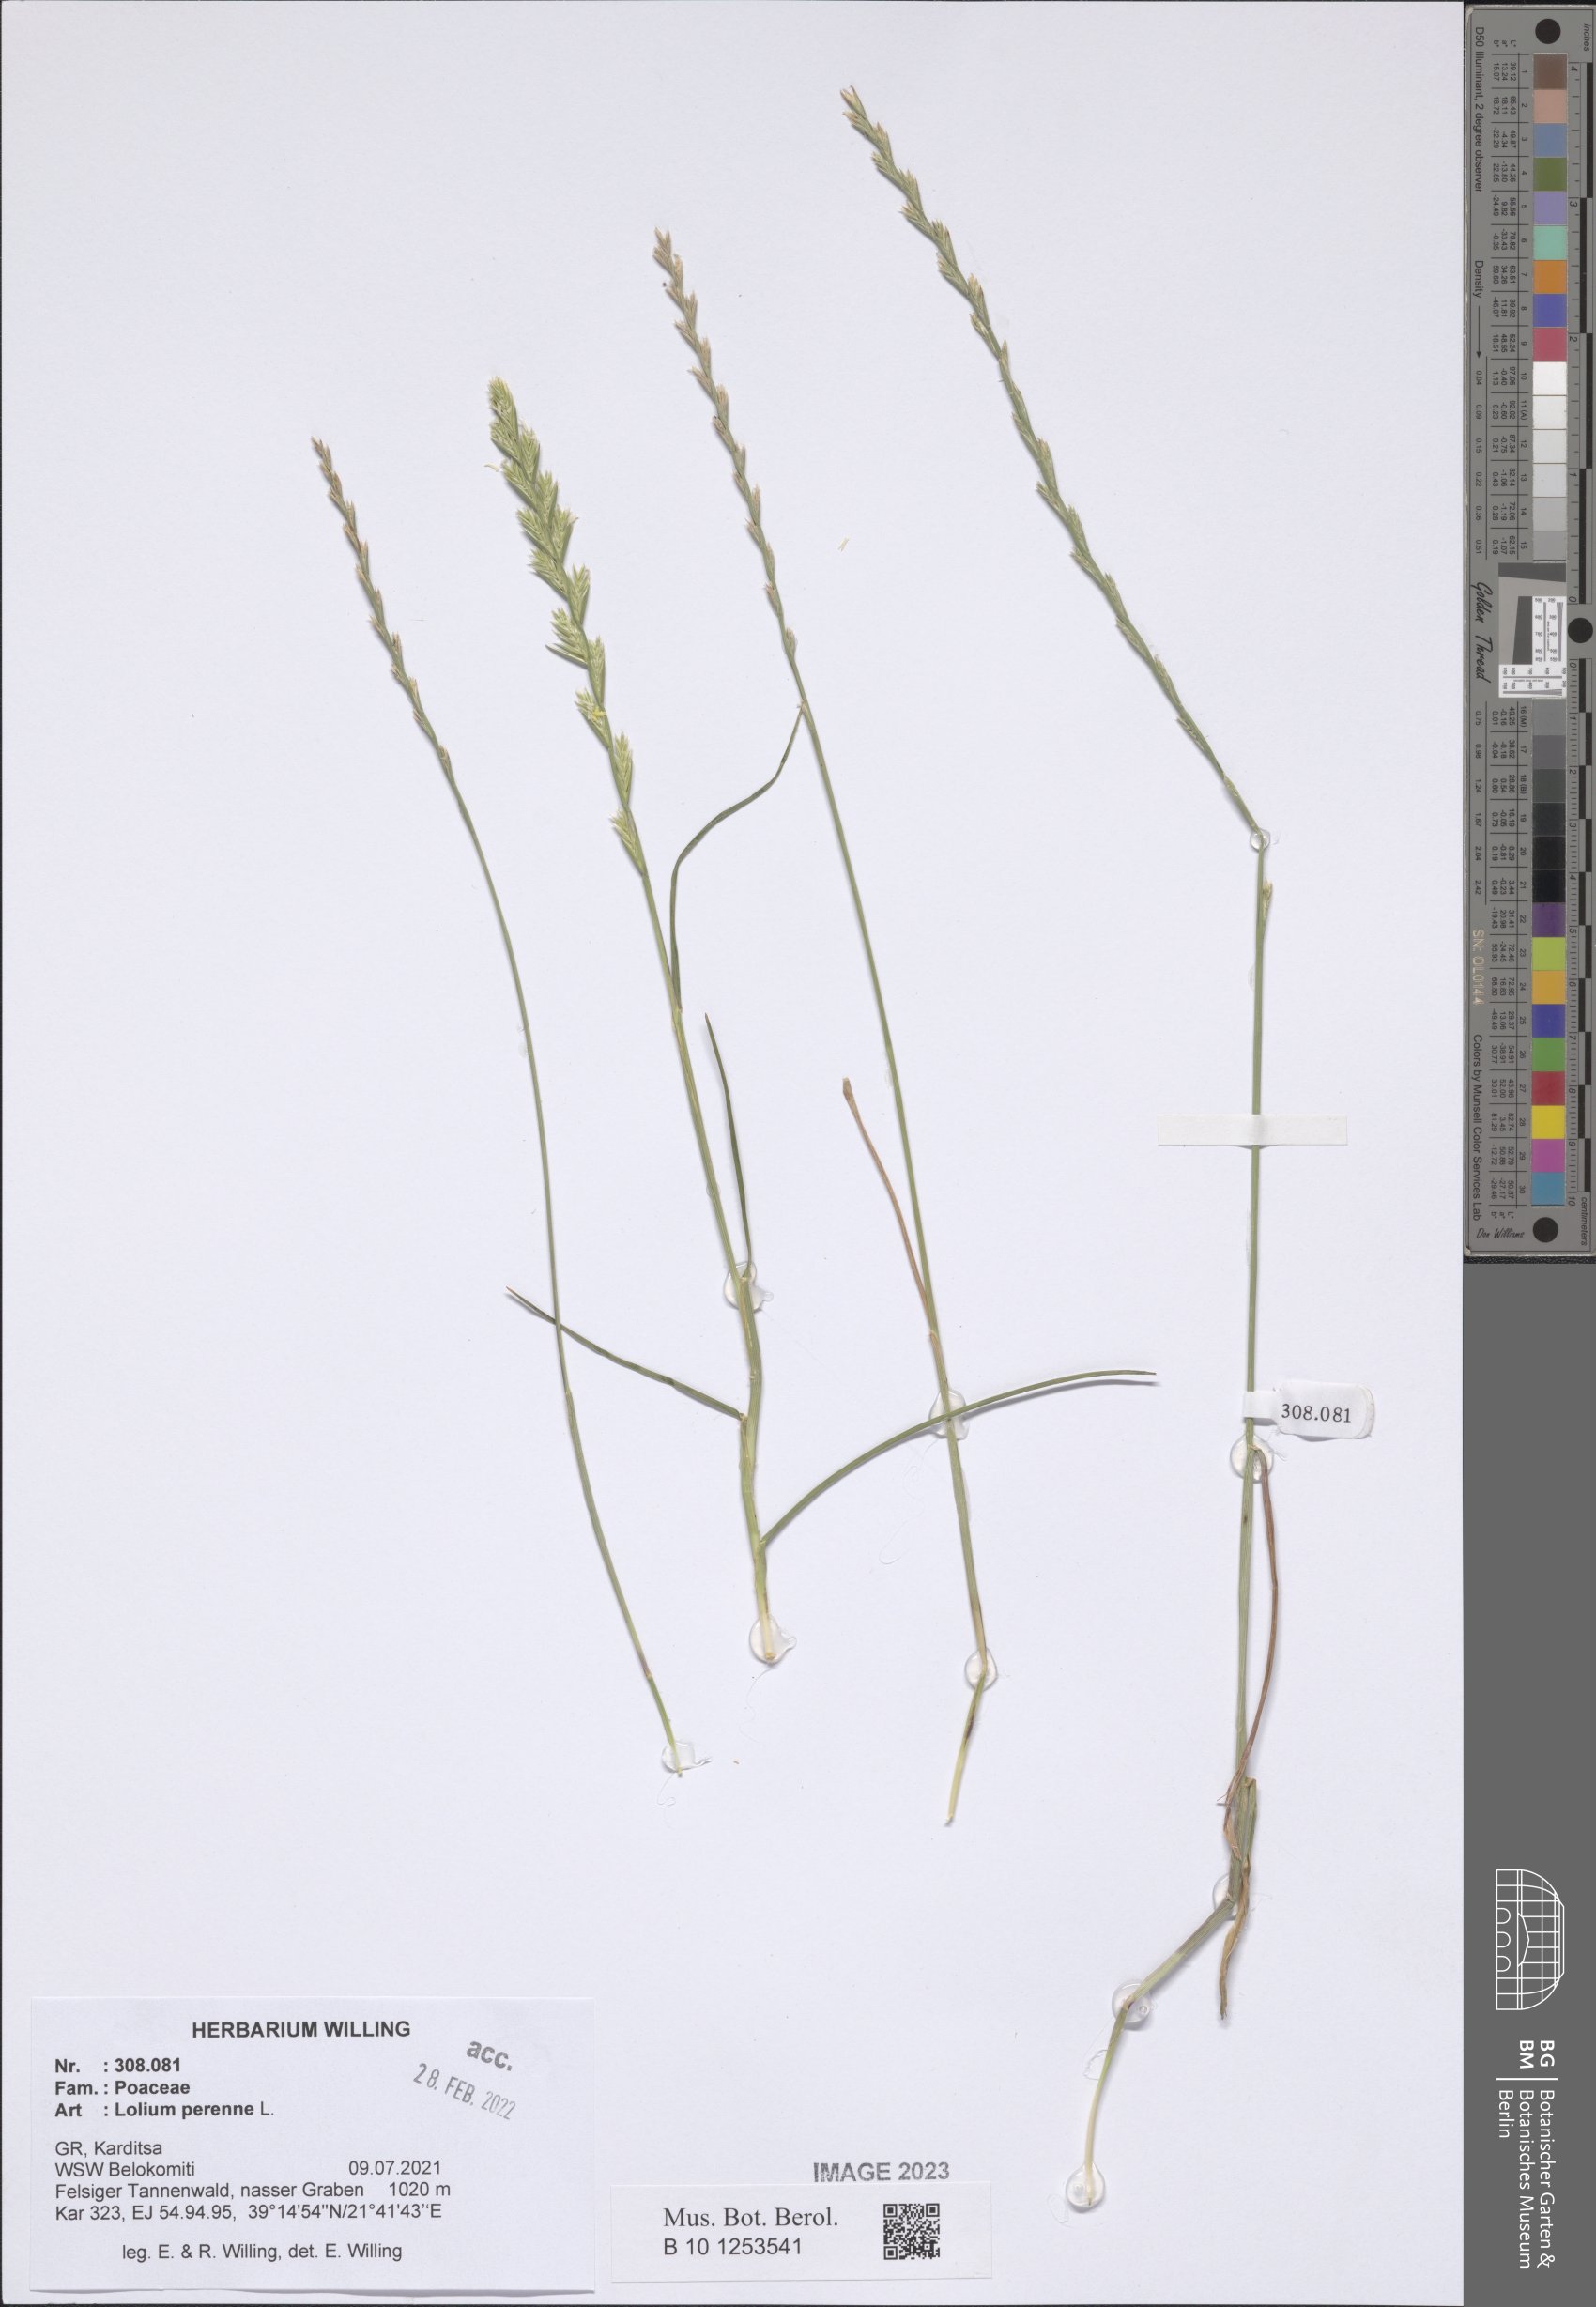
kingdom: Plantae
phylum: Tracheophyta
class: Liliopsida
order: Poales
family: Poaceae
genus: Lolium
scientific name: Lolium perenne
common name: Perennial ryegrass
